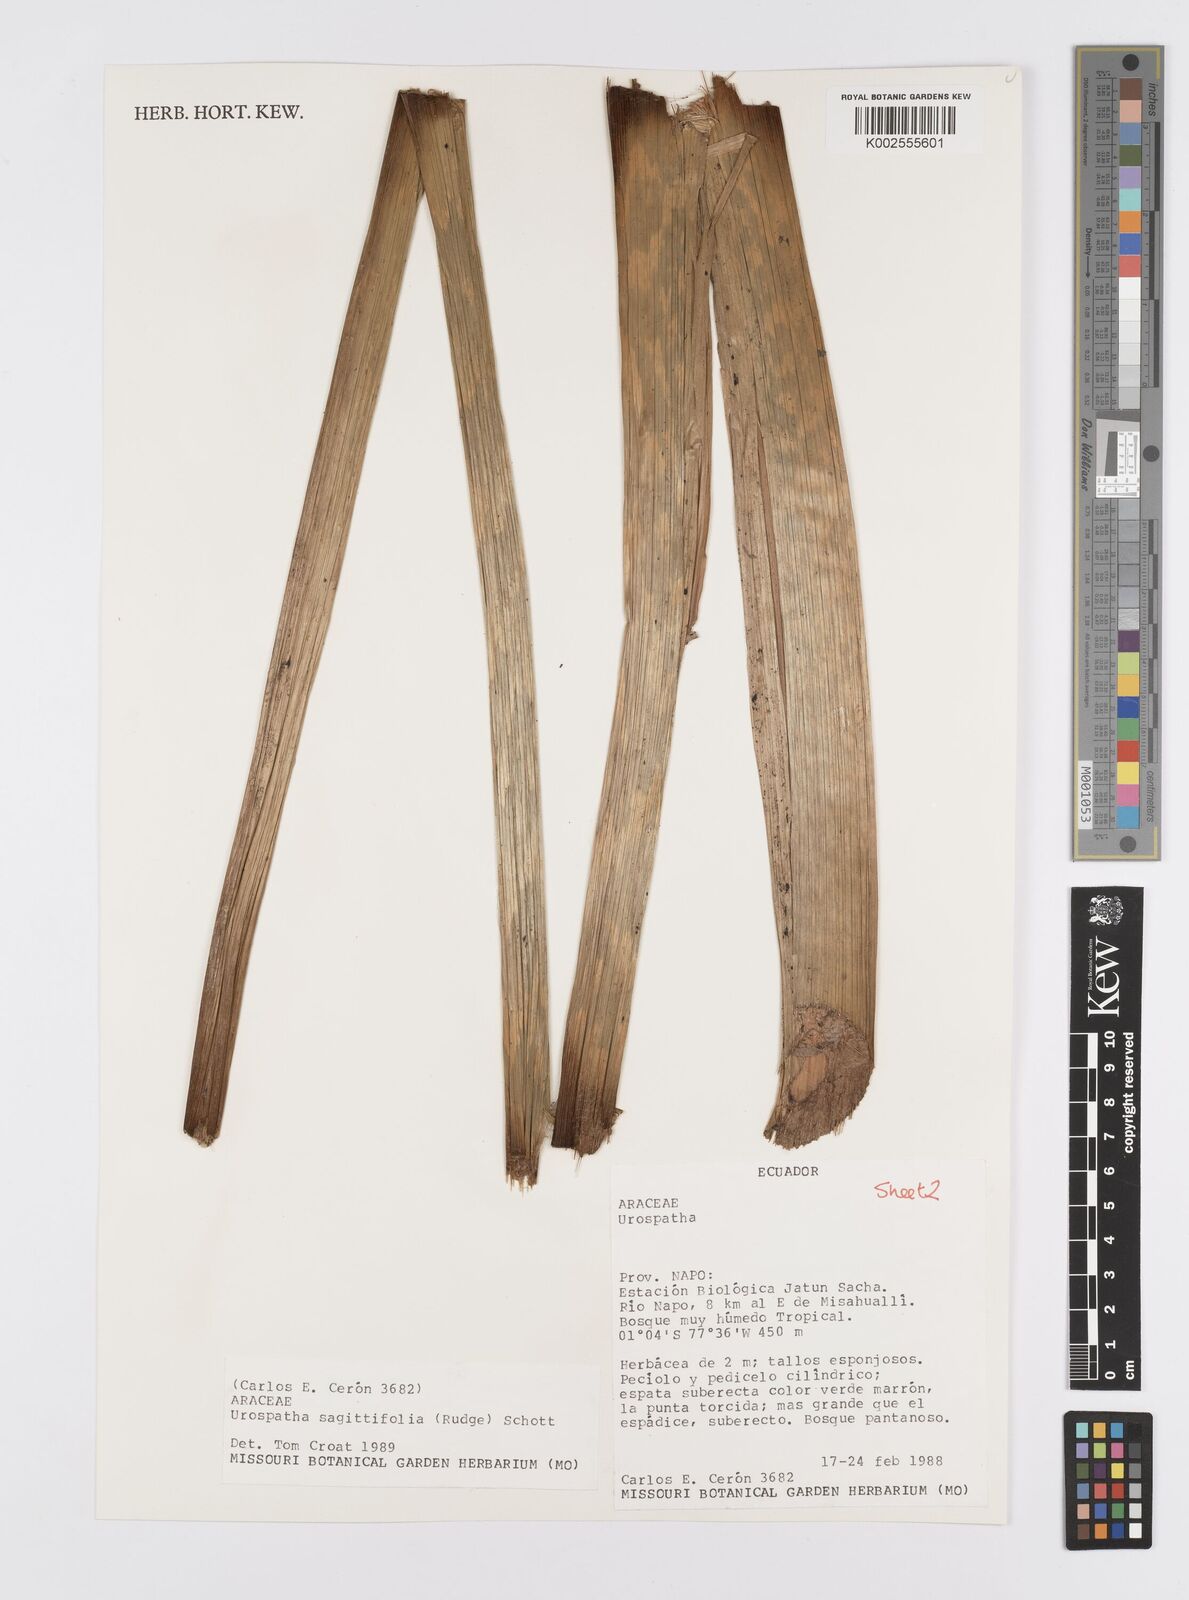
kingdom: Plantae
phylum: Tracheophyta
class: Liliopsida
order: Alismatales
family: Araceae
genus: Urospatha
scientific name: Urospatha sagittifolia
